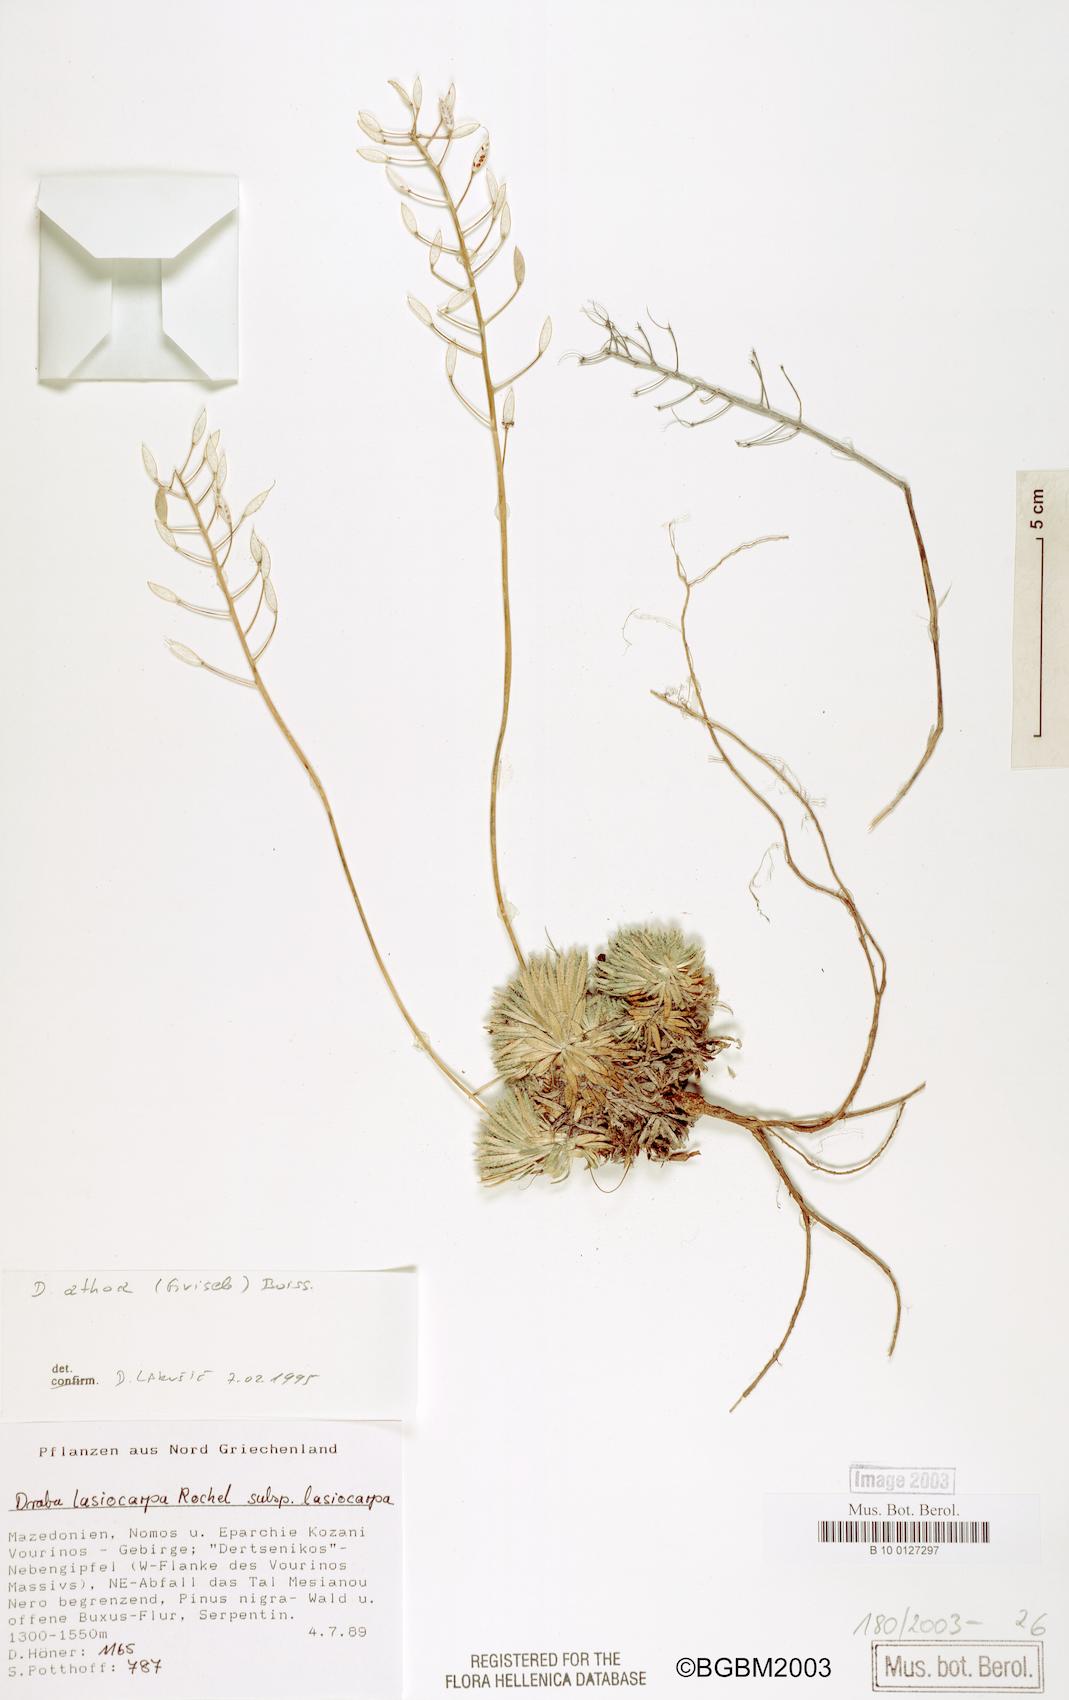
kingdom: Plantae
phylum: Tracheophyta
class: Magnoliopsida
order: Brassicales
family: Brassicaceae
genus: Draba
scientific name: Draba lasiocarpa
